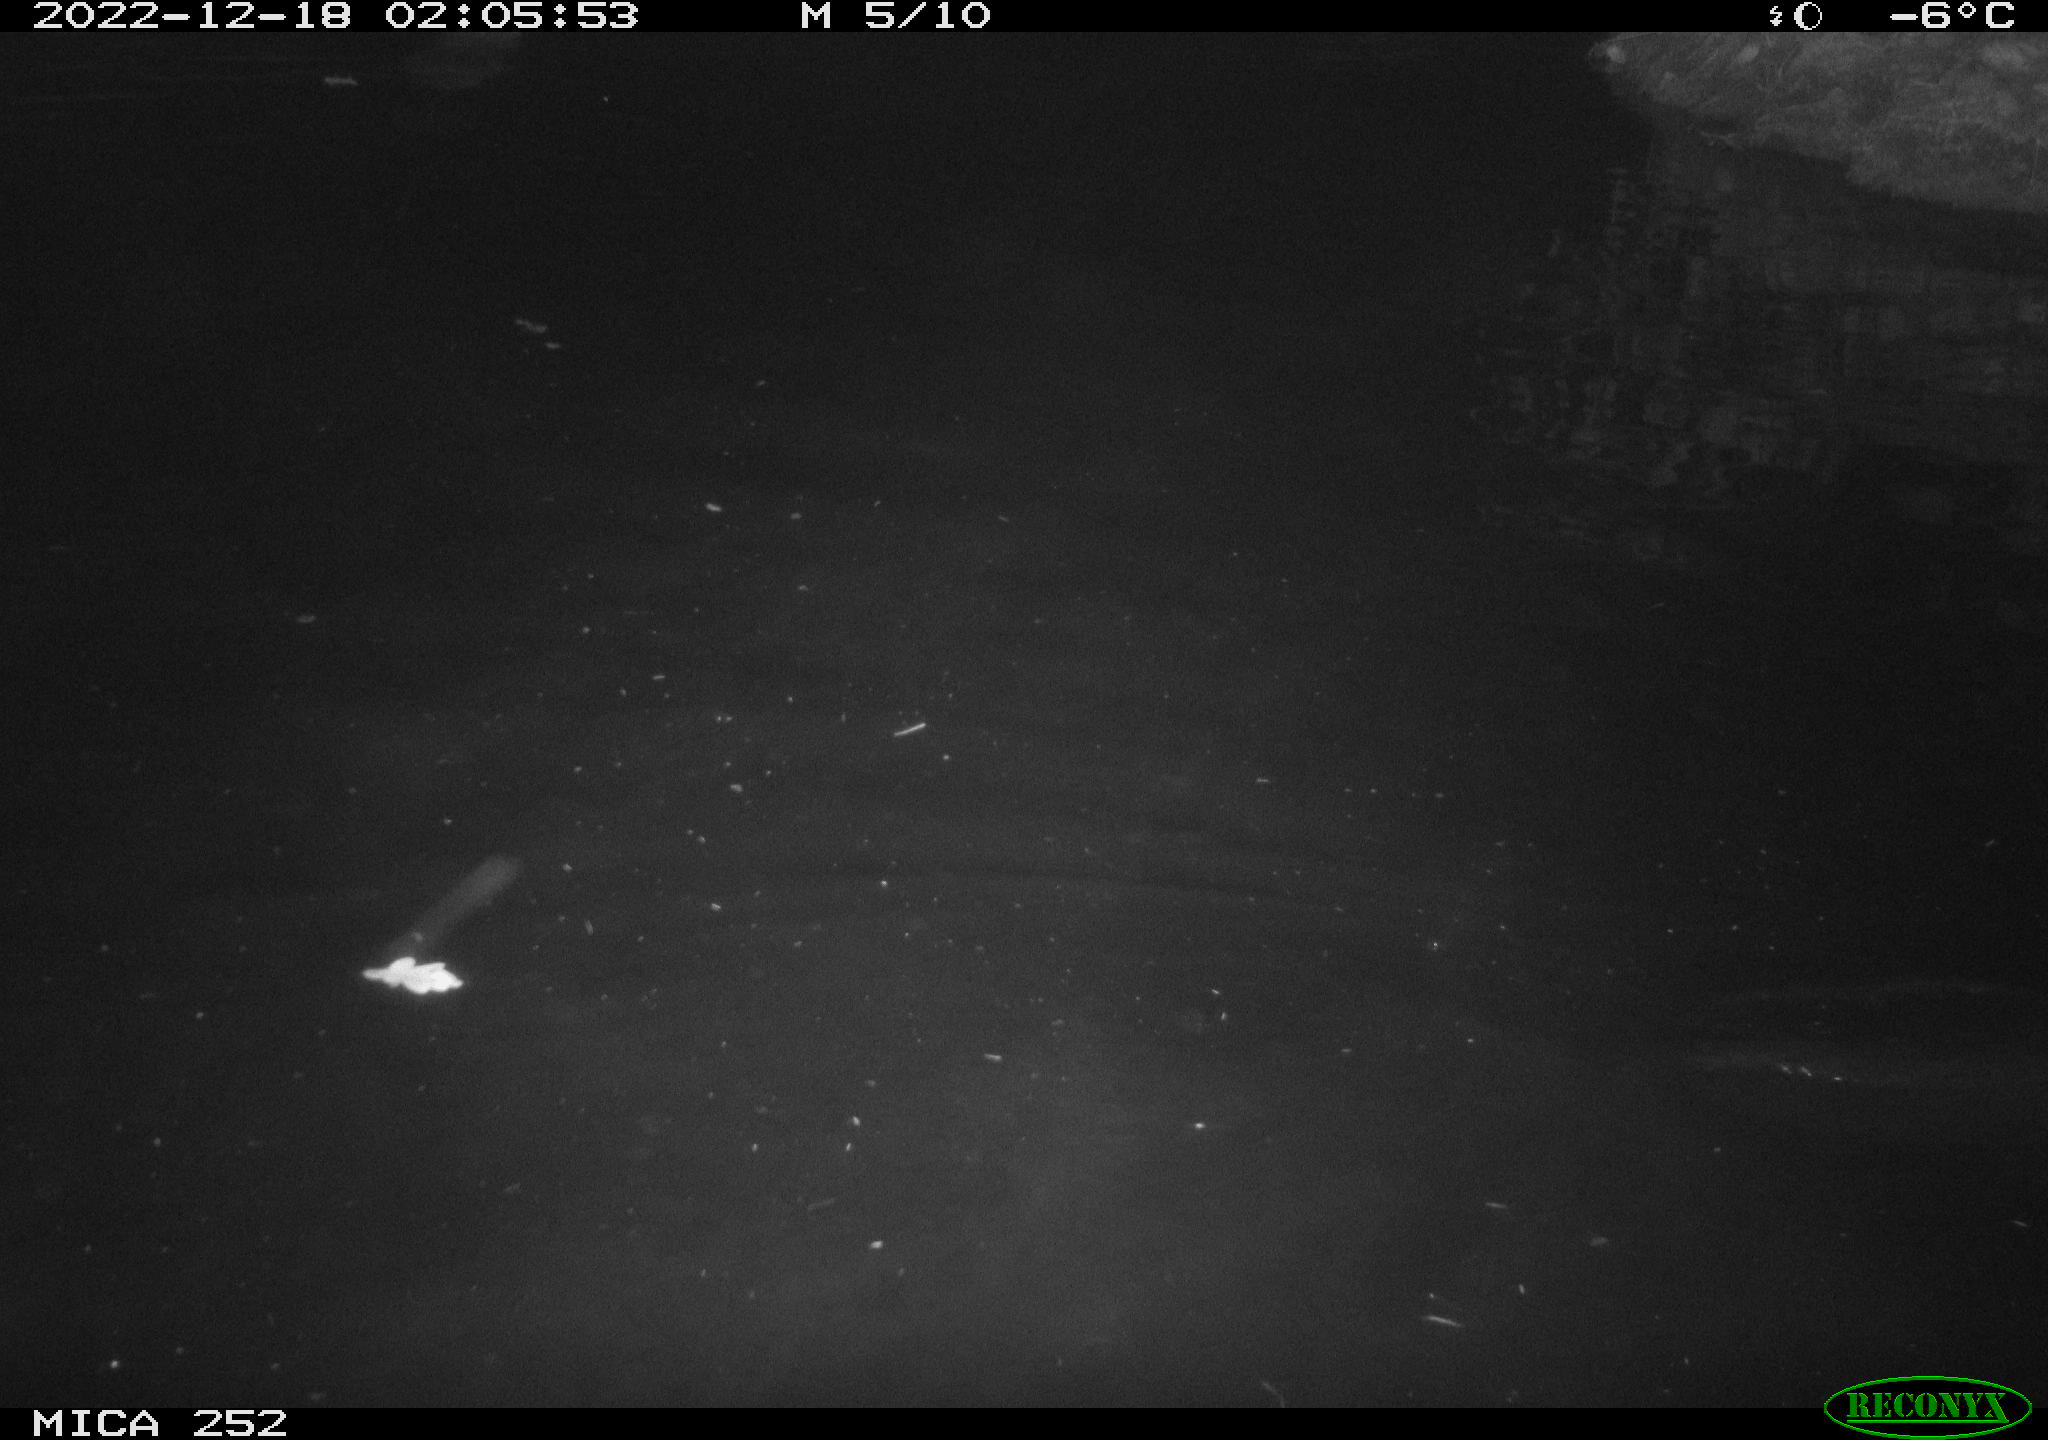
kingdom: Animalia
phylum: Chordata
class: Mammalia
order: Rodentia
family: Castoridae
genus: Castor
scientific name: Castor fiber
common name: Eurasian beaver
